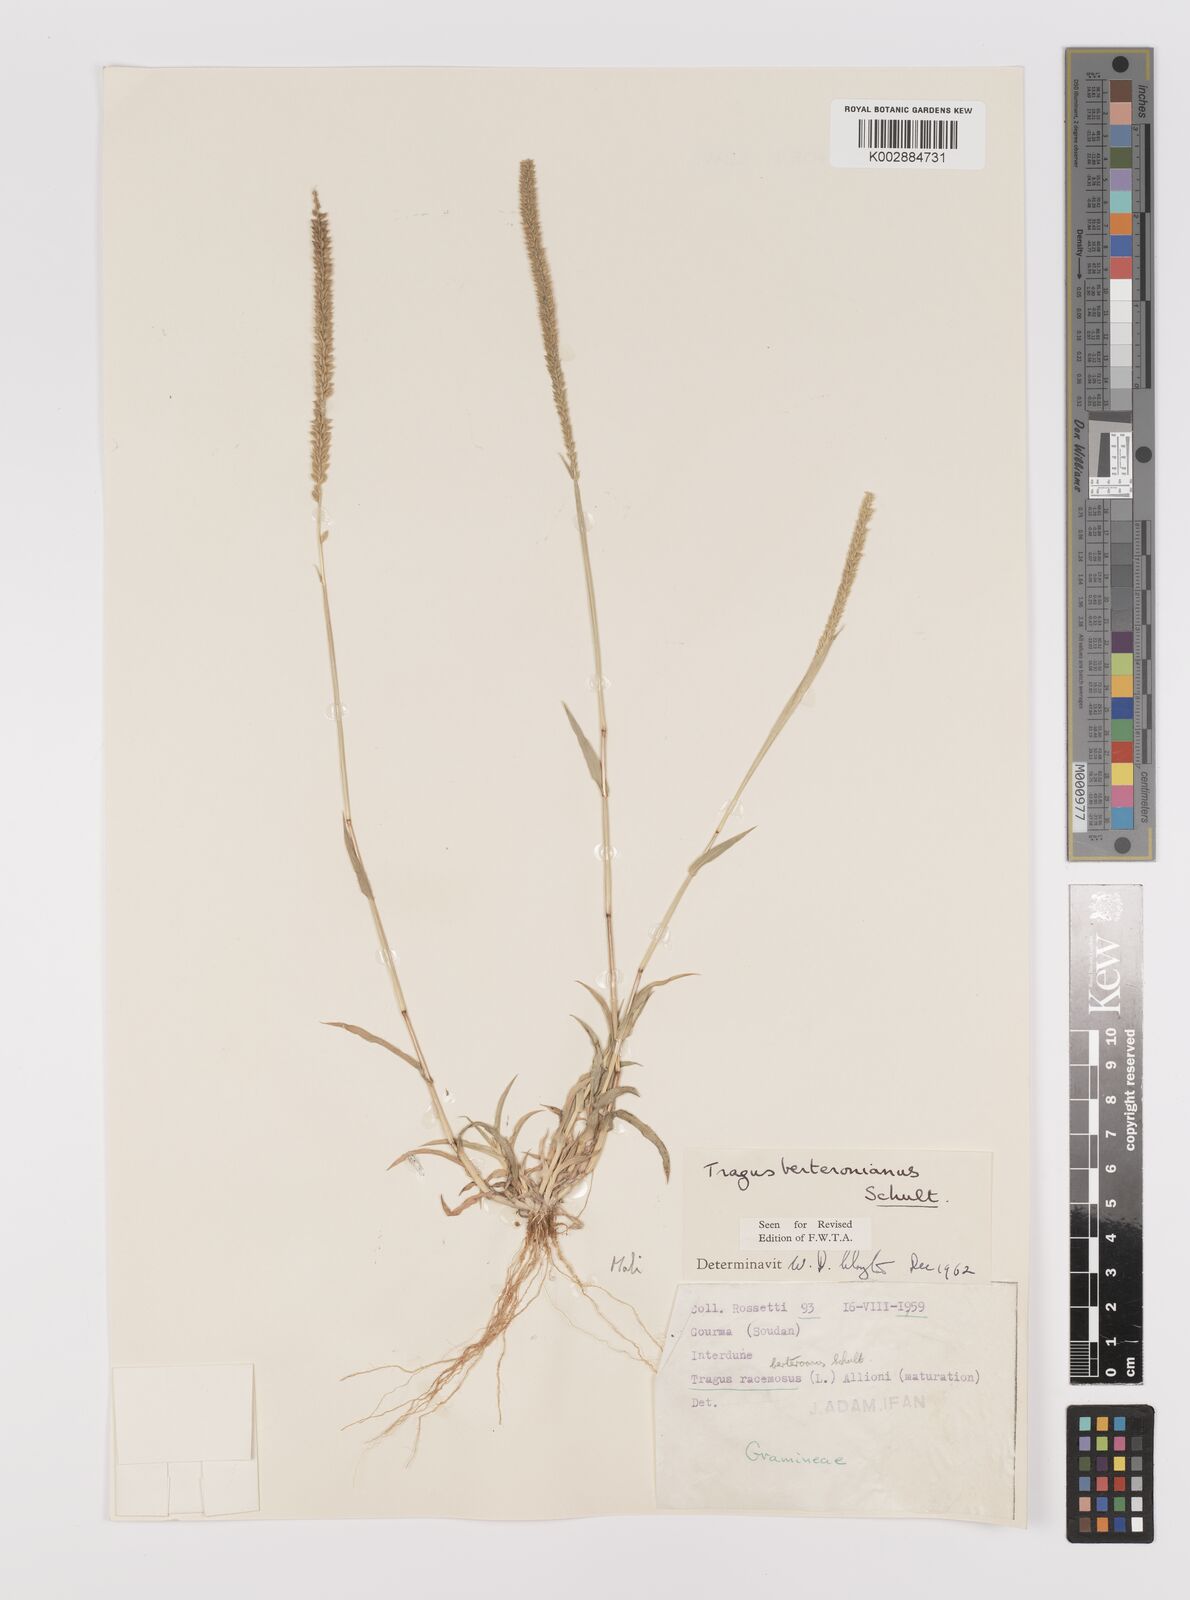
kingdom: Plantae
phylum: Tracheophyta
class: Liliopsida
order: Poales
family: Poaceae
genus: Tragus
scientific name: Tragus berteronianus
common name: African bur-grass
